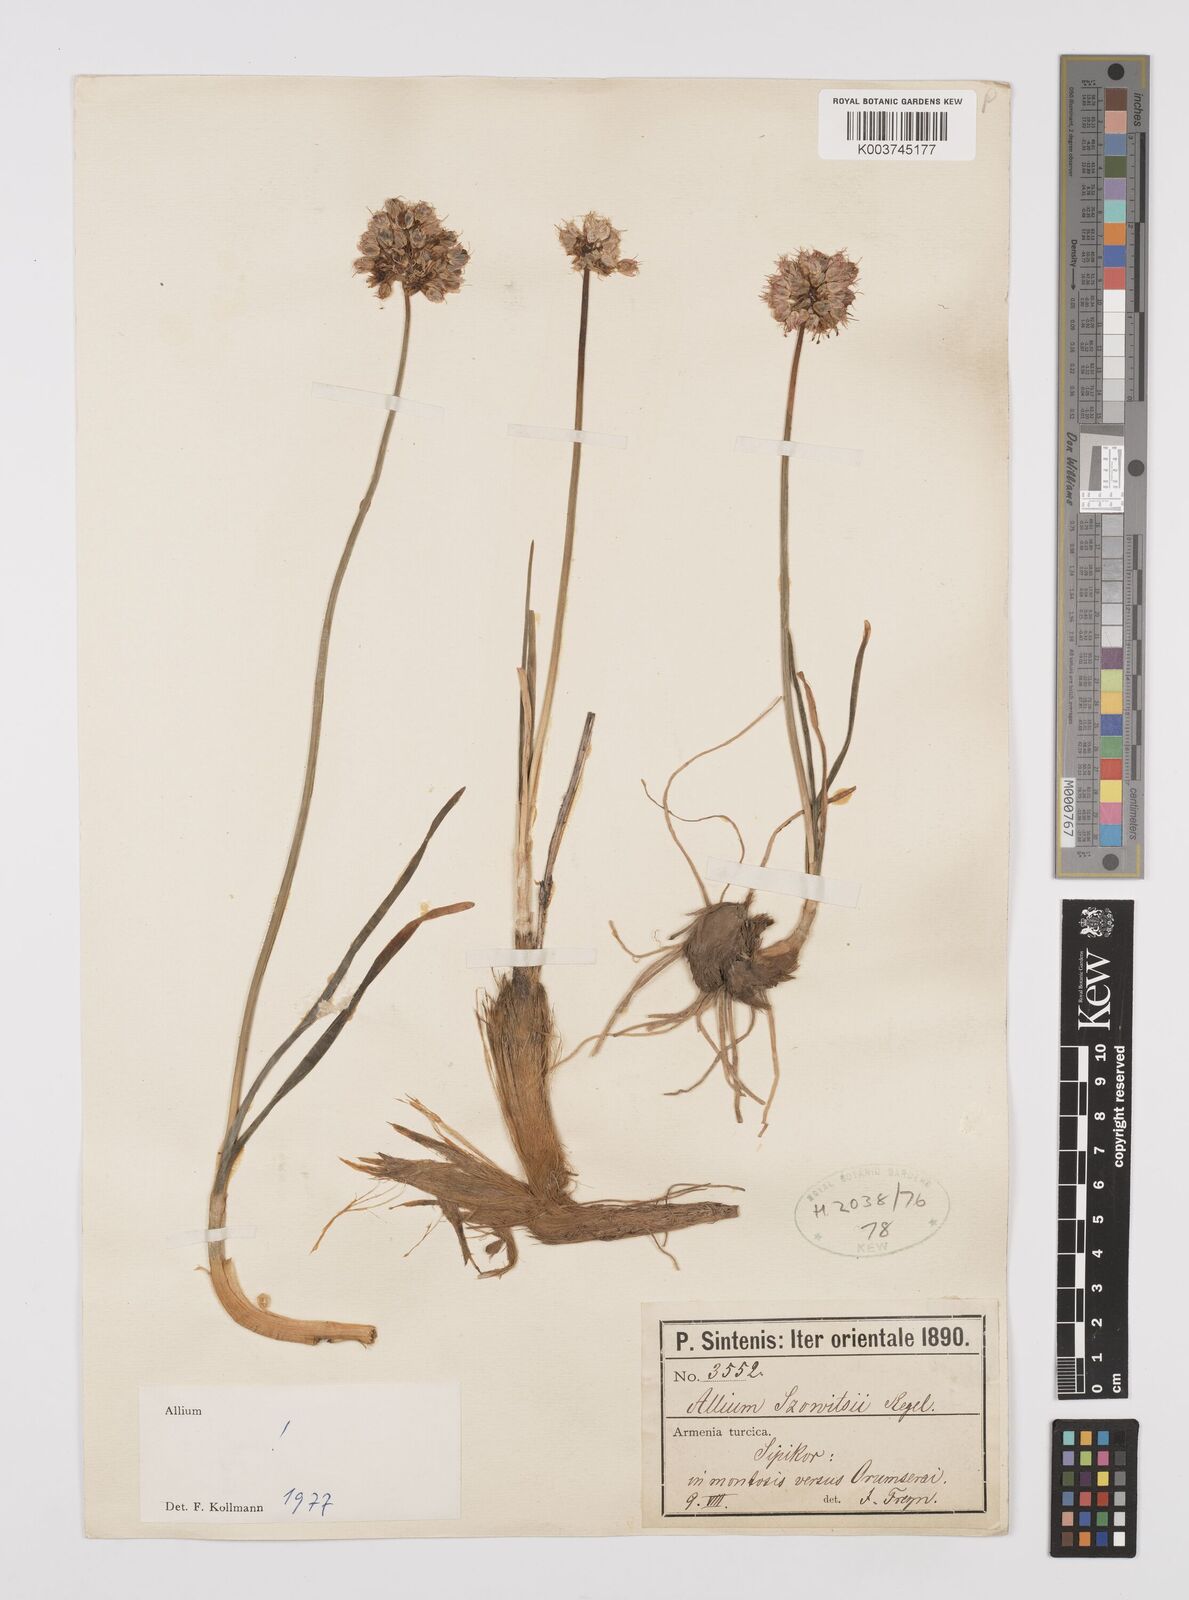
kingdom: Plantae
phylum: Tracheophyta
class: Liliopsida
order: Asparagales
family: Amaryllidaceae
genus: Allium
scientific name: Allium szovitsii
